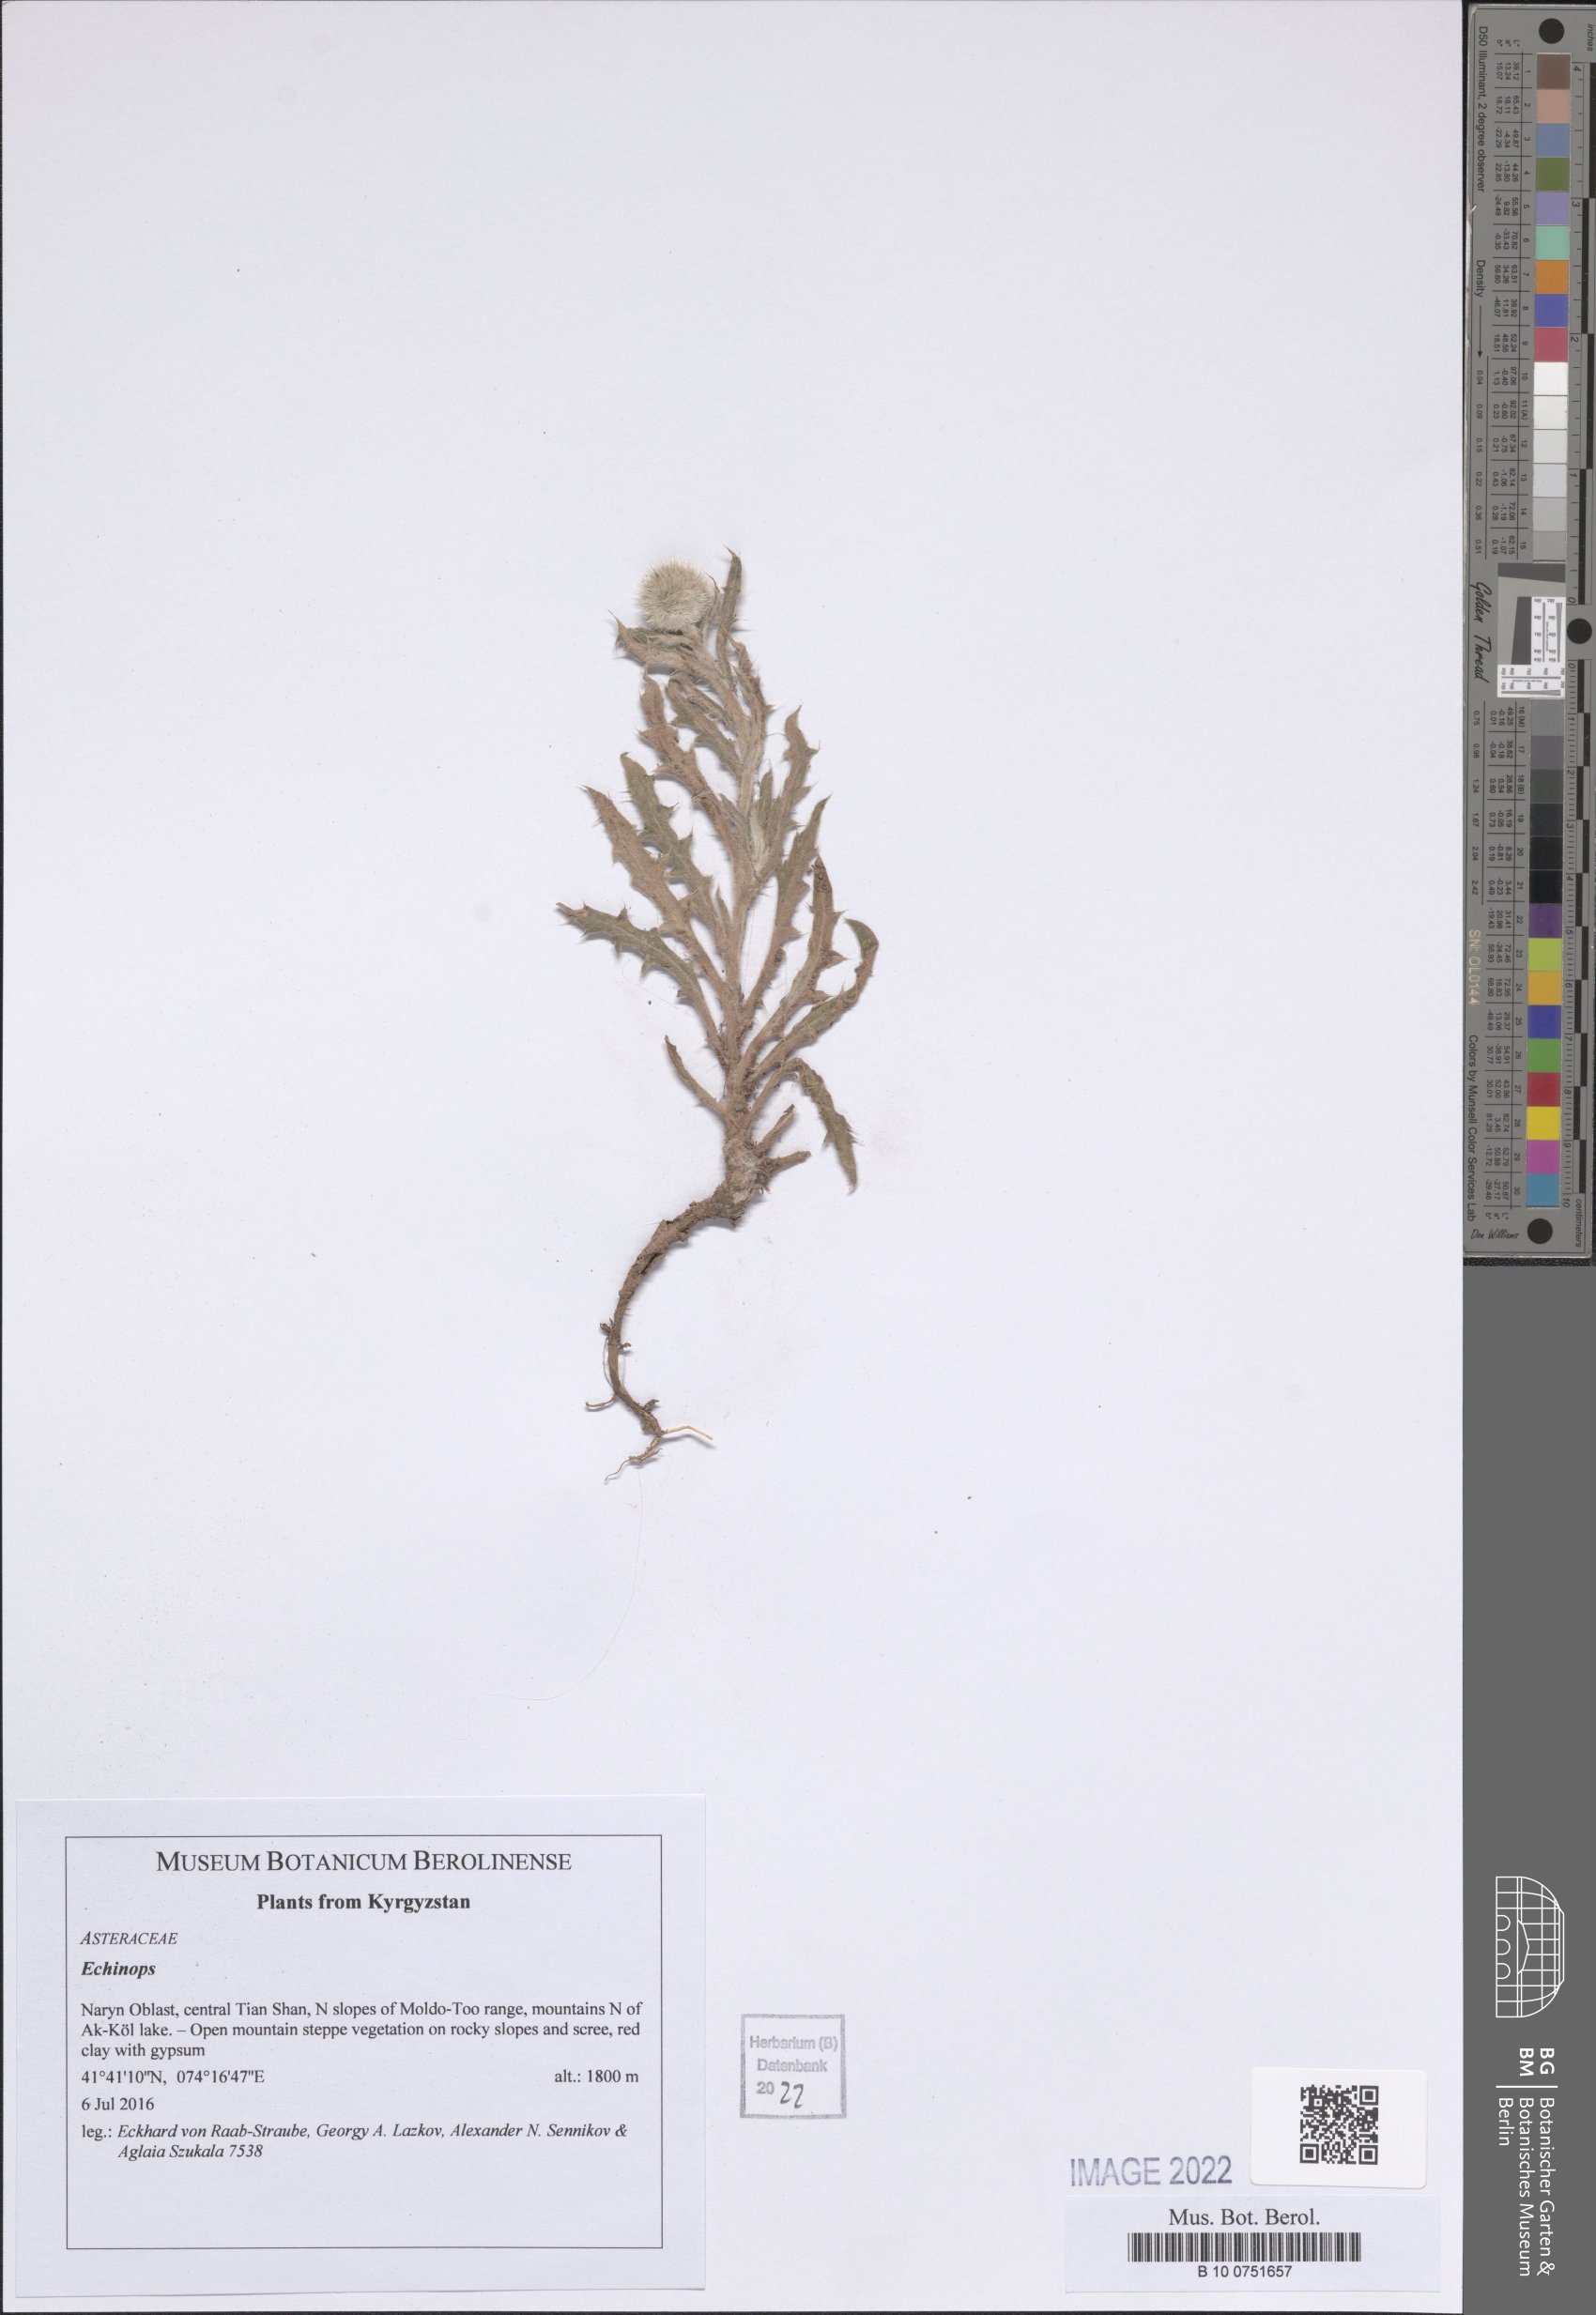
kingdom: Plantae
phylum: Tracheophyta
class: Magnoliopsida
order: Asterales
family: Asteraceae
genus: Echinops
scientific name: Echinops
